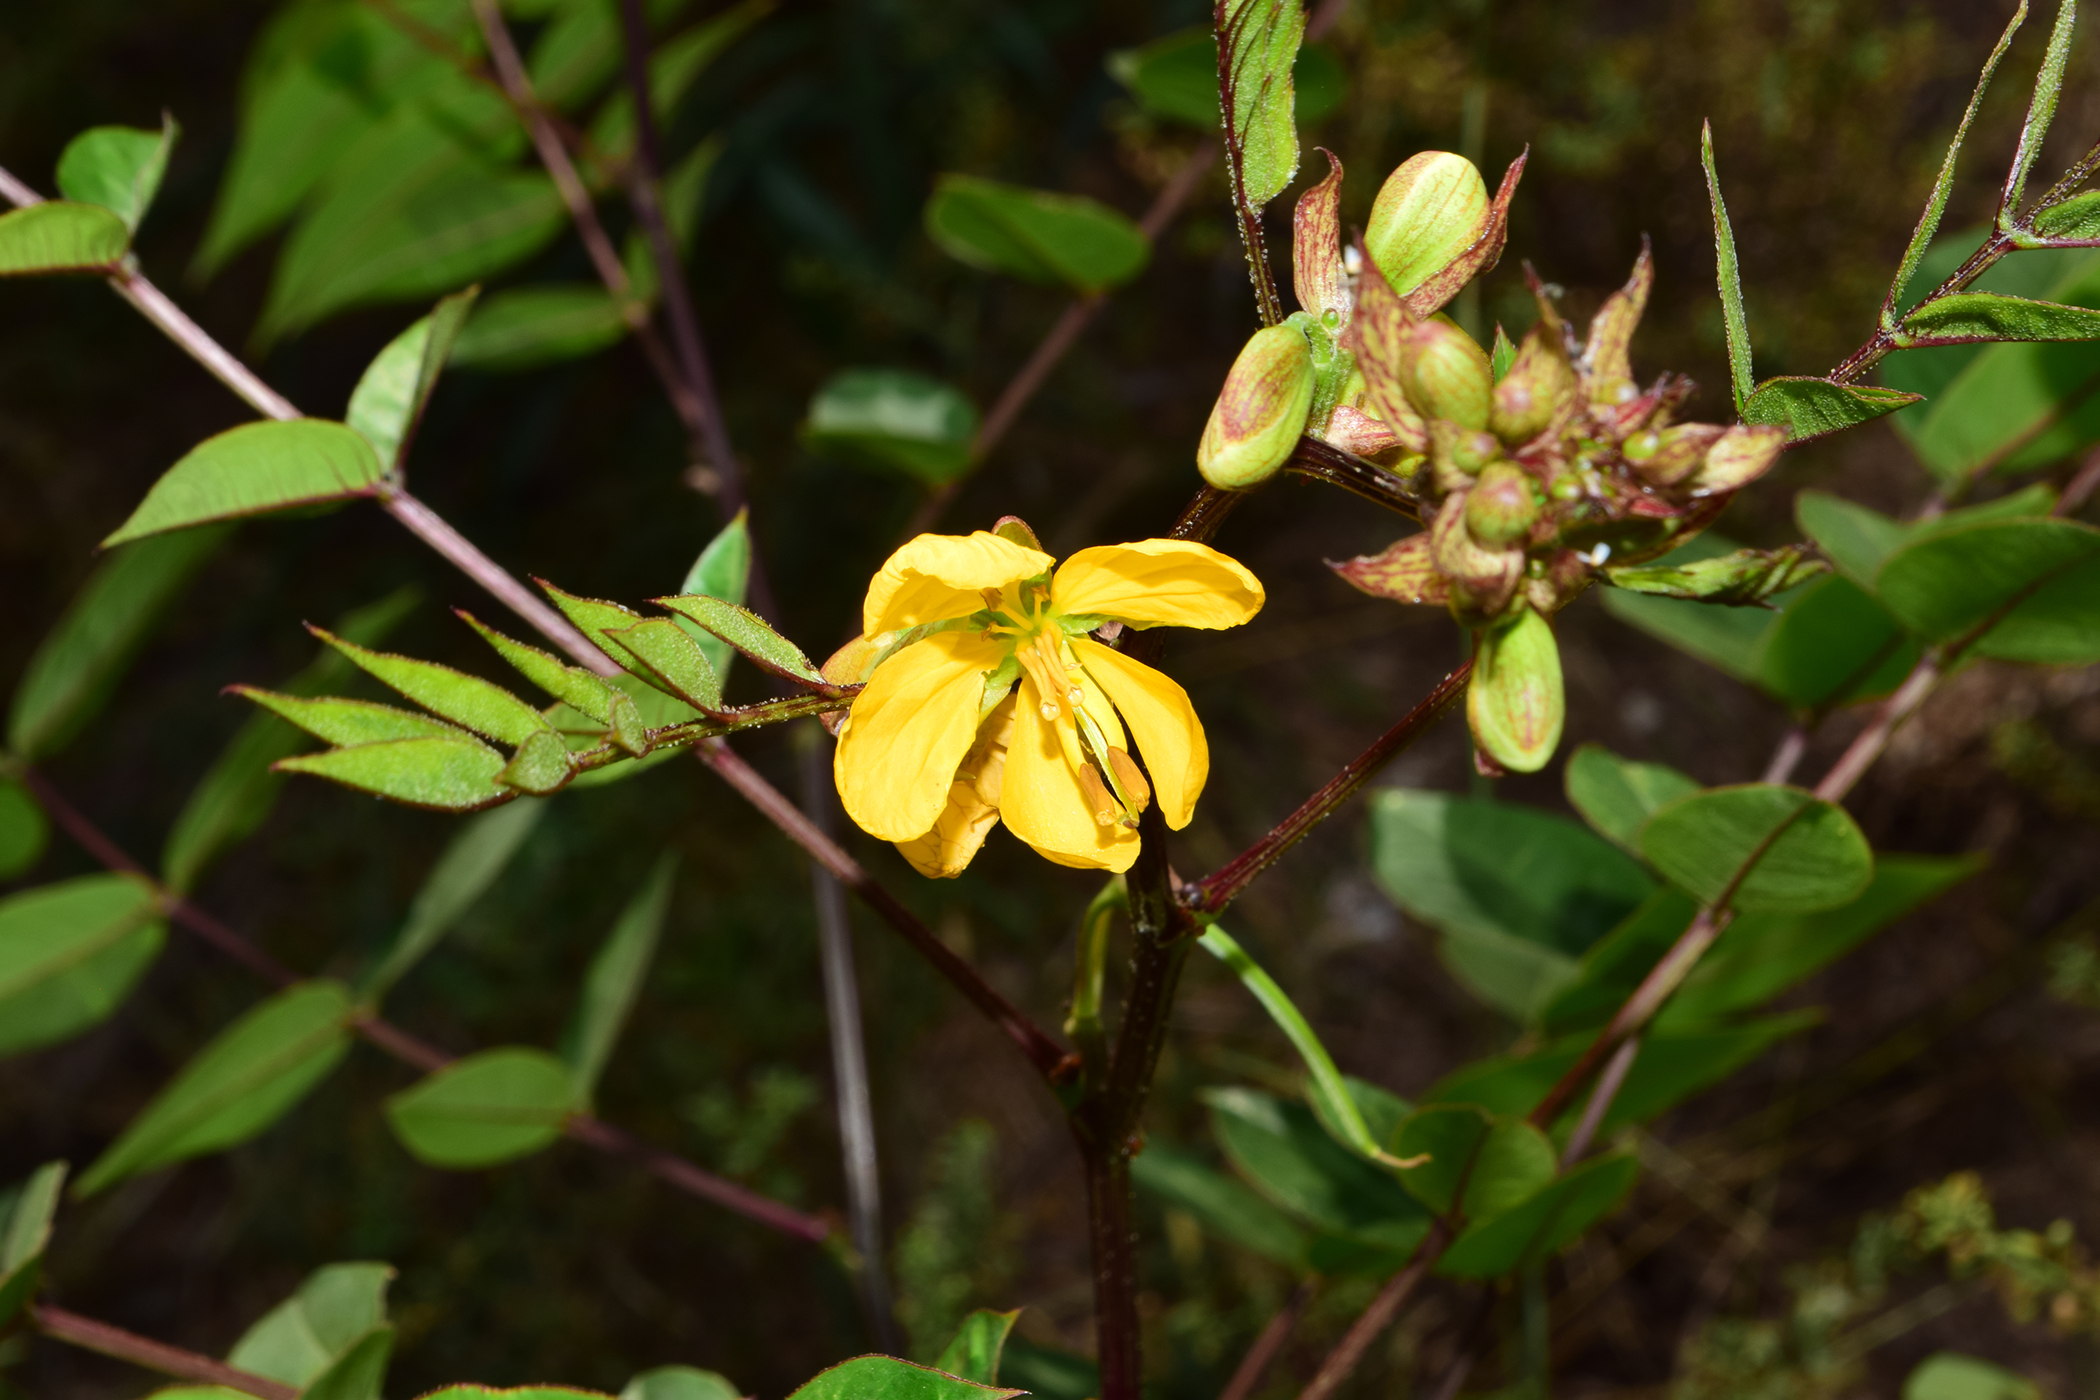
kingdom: Plantae
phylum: Tracheophyta
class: Magnoliopsida
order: Fabales
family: Fabaceae
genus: Senna
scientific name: Senna occidentalis
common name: Septicweed
